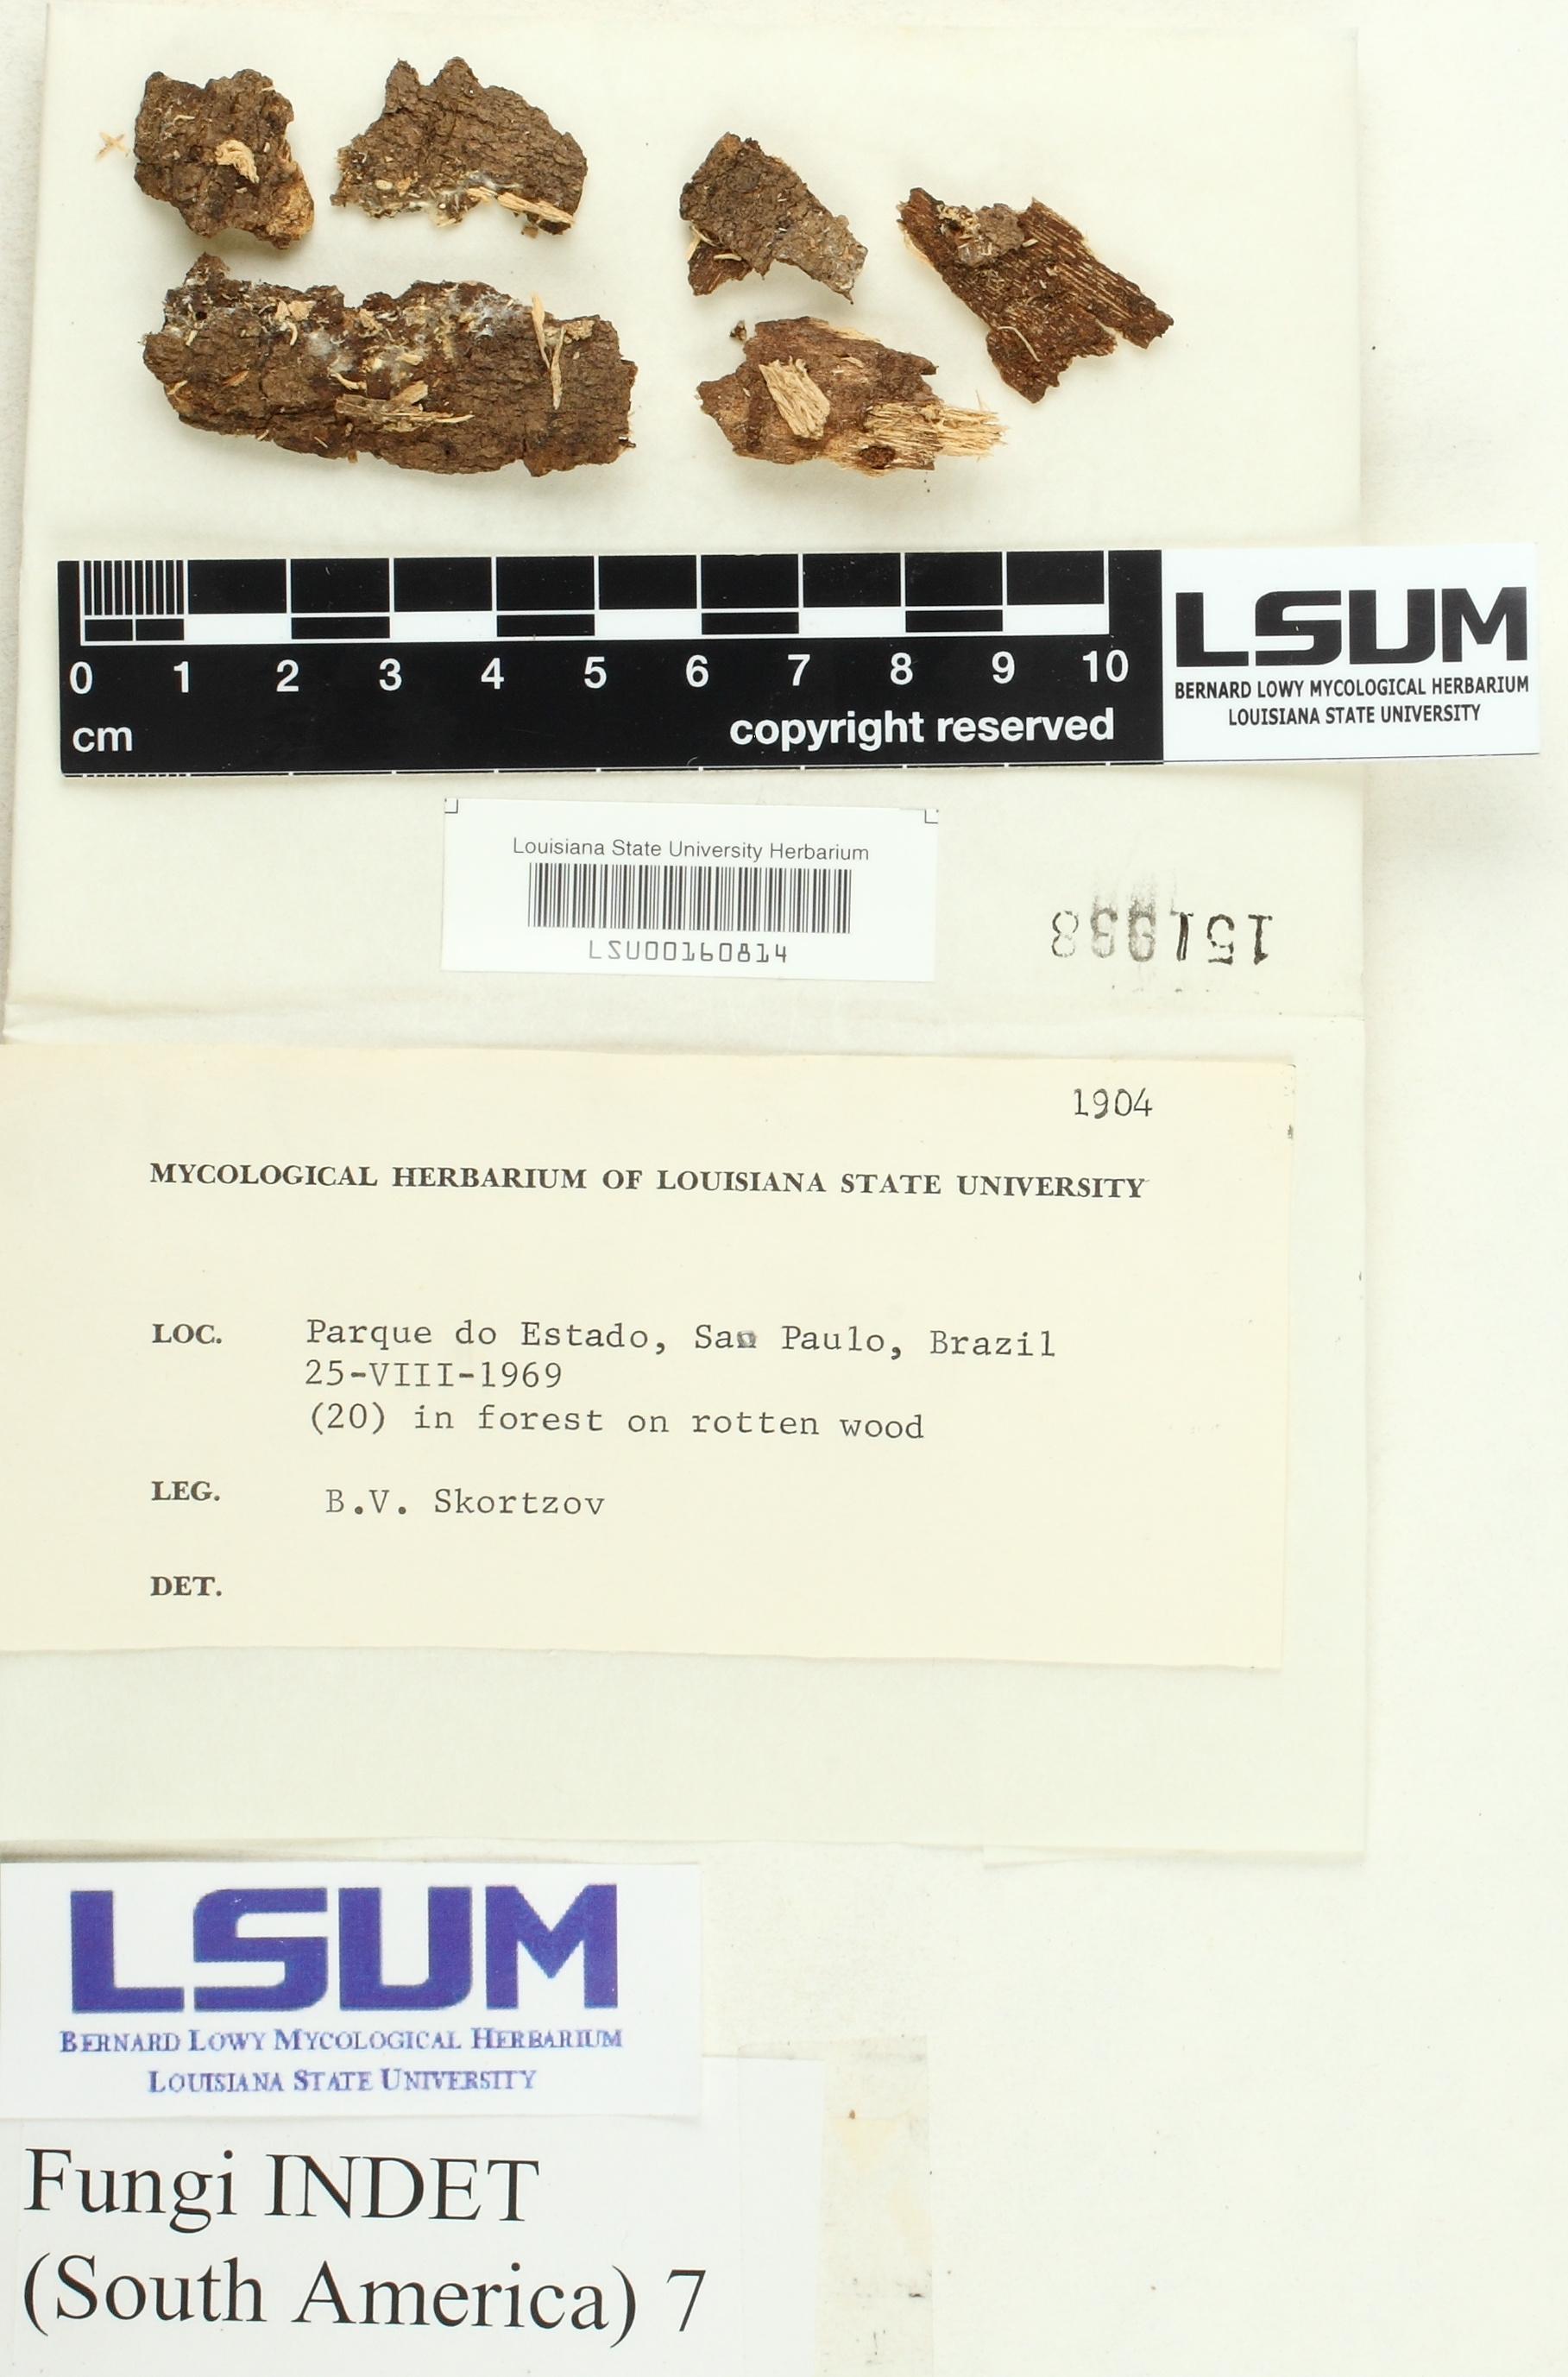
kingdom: Fungi
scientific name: Fungi
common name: Fungi
